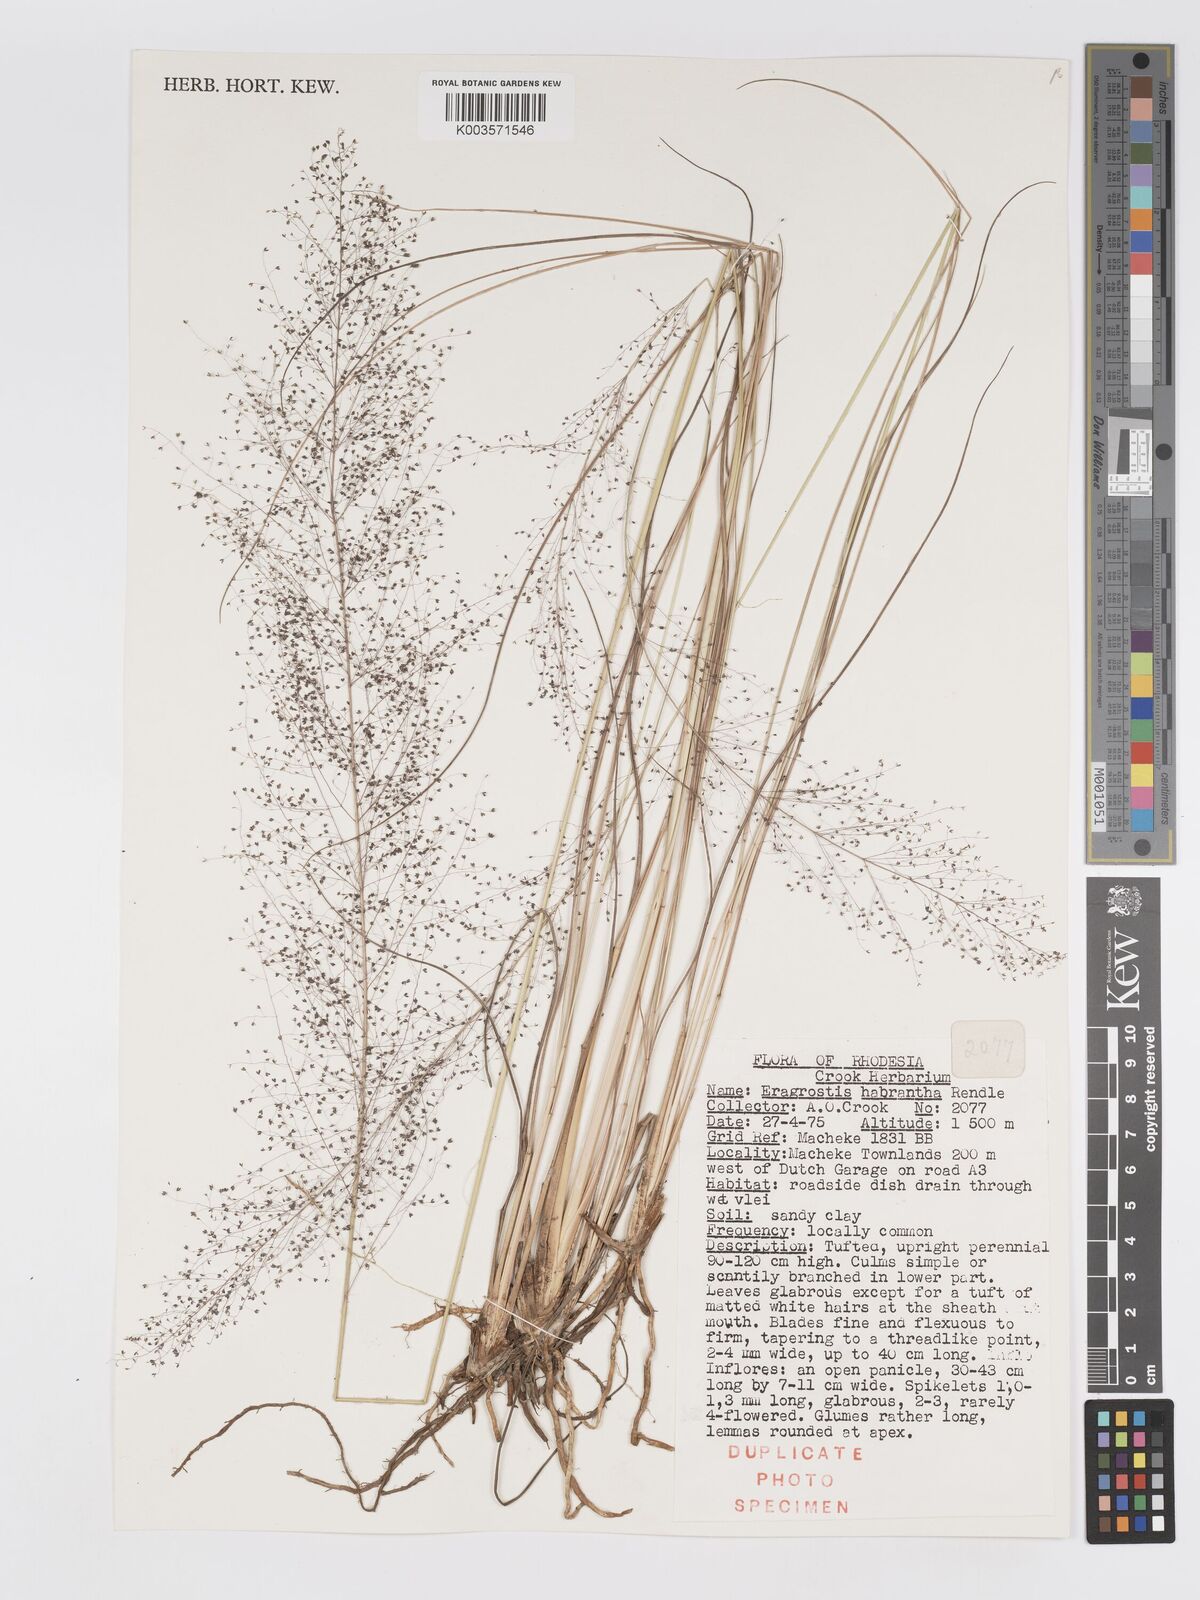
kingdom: Plantae
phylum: Tracheophyta
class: Liliopsida
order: Poales
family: Poaceae
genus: Eragrostis
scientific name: Eragrostis habrantha
